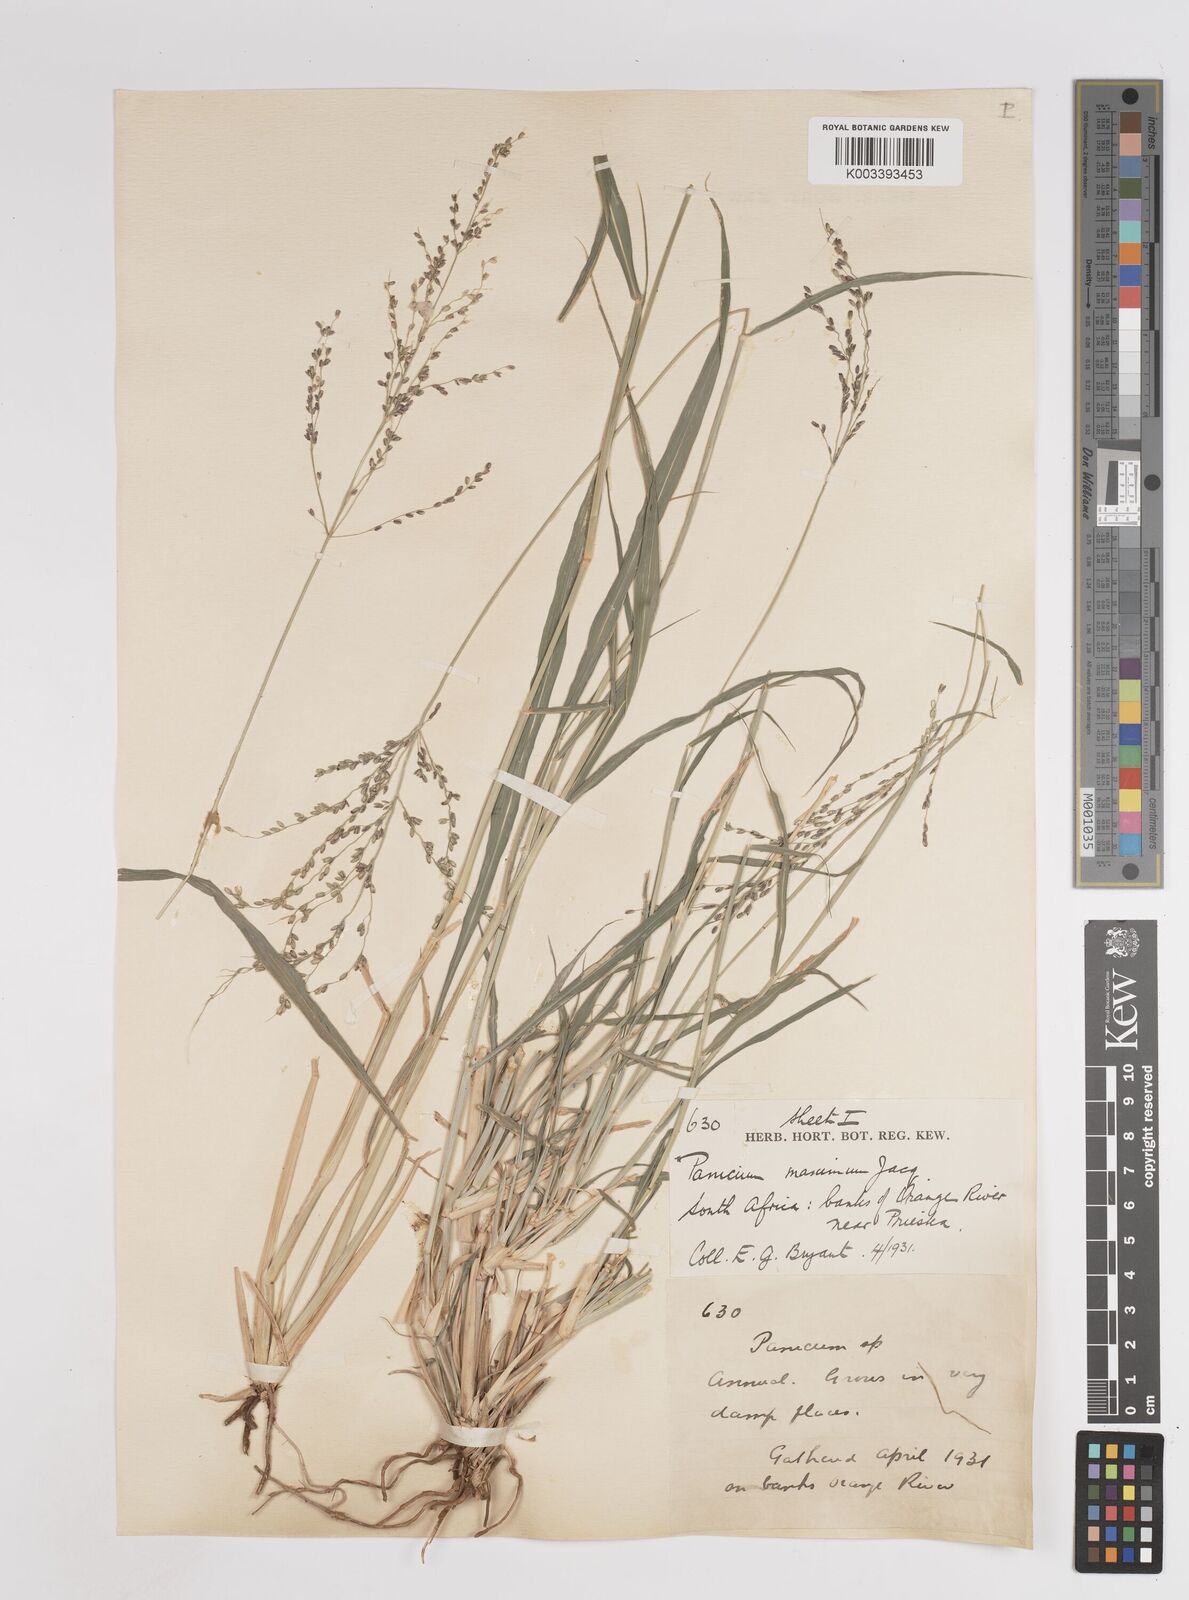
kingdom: Plantae
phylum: Tracheophyta
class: Liliopsida
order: Poales
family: Poaceae
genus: Megathyrsus
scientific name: Megathyrsus maximus
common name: Guineagrass
